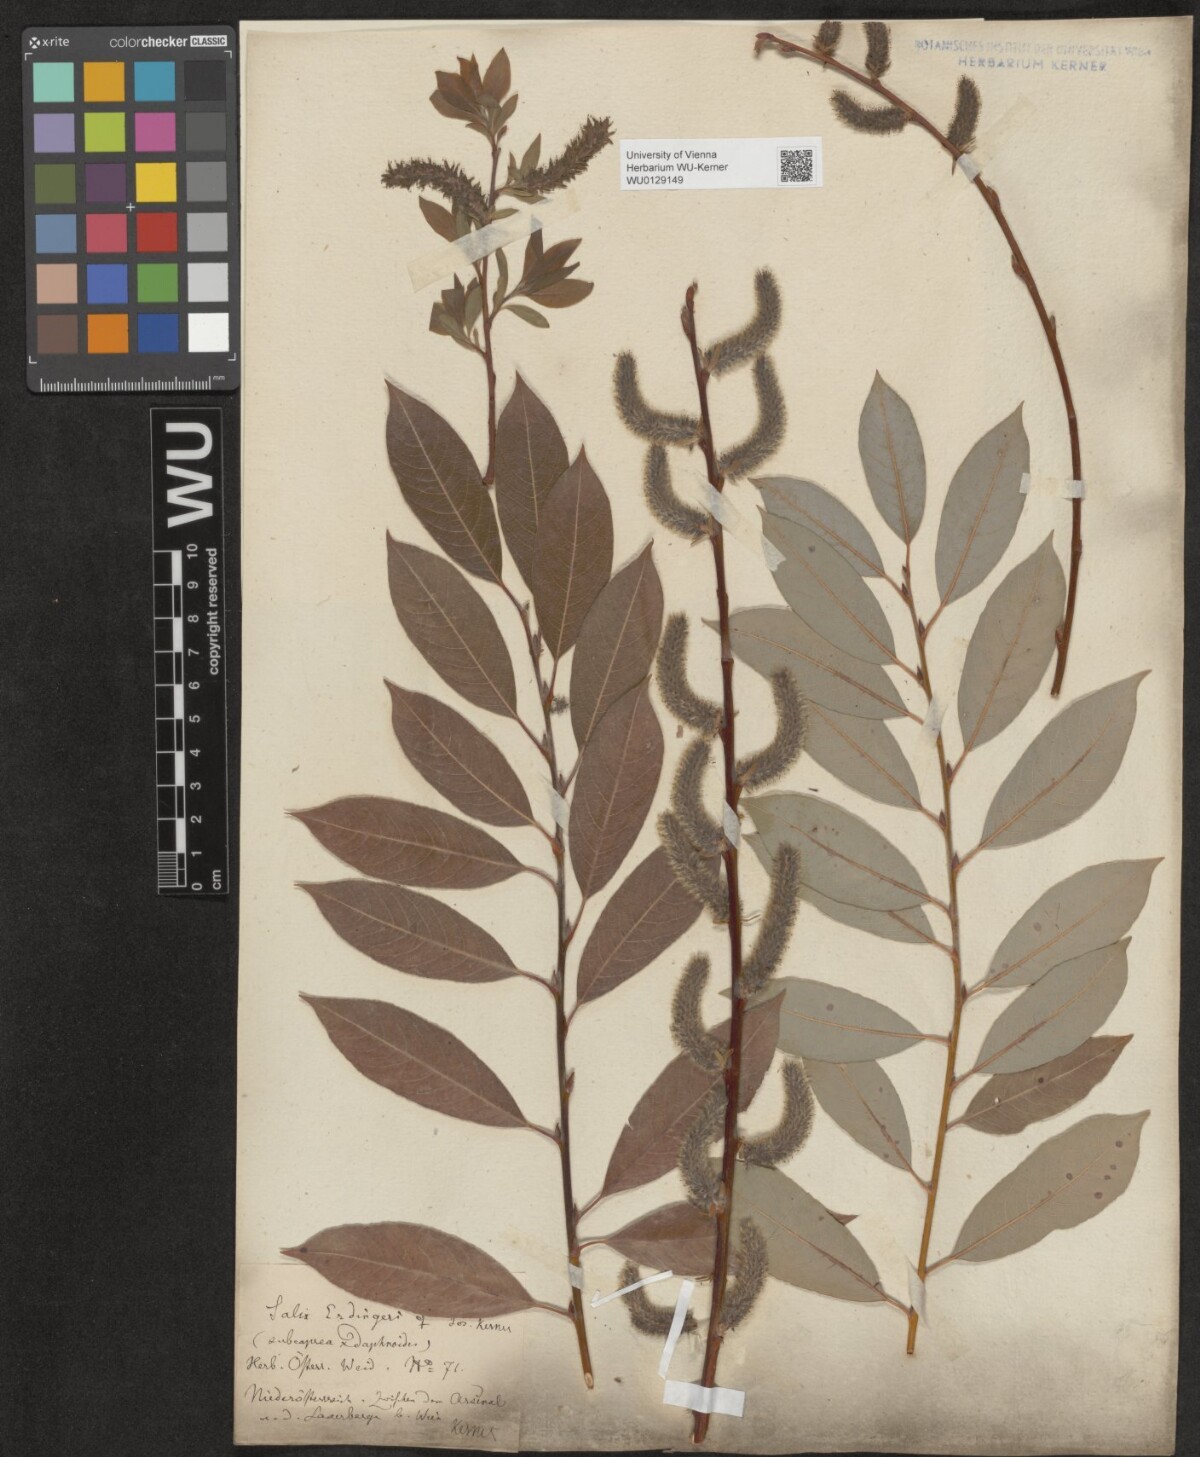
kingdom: Plantae
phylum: Tracheophyta
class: Magnoliopsida
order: Malpighiales
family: Salicaceae
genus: Salix
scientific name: Salix erdingeri
